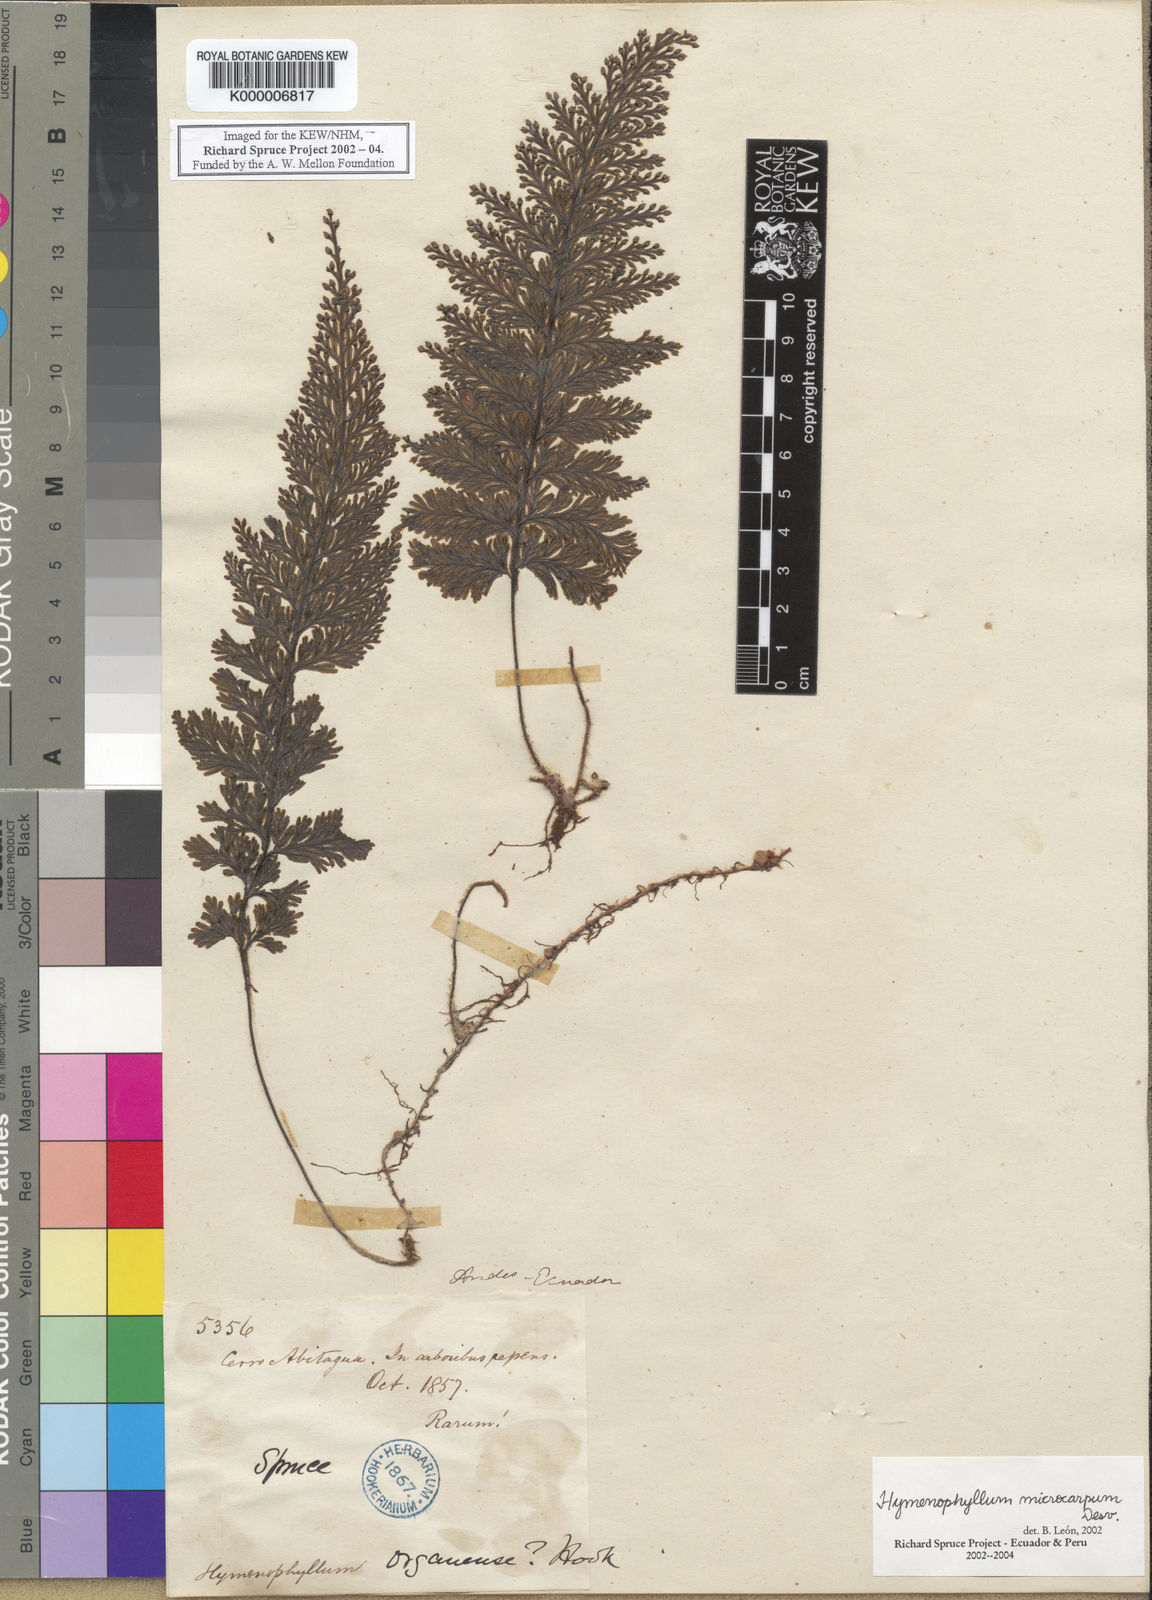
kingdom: Plantae
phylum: Tracheophyta
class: Polypodiopsida
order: Hymenophyllales
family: Hymenophyllaceae
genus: Hymenophyllum
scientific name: Hymenophyllum microcarpum
